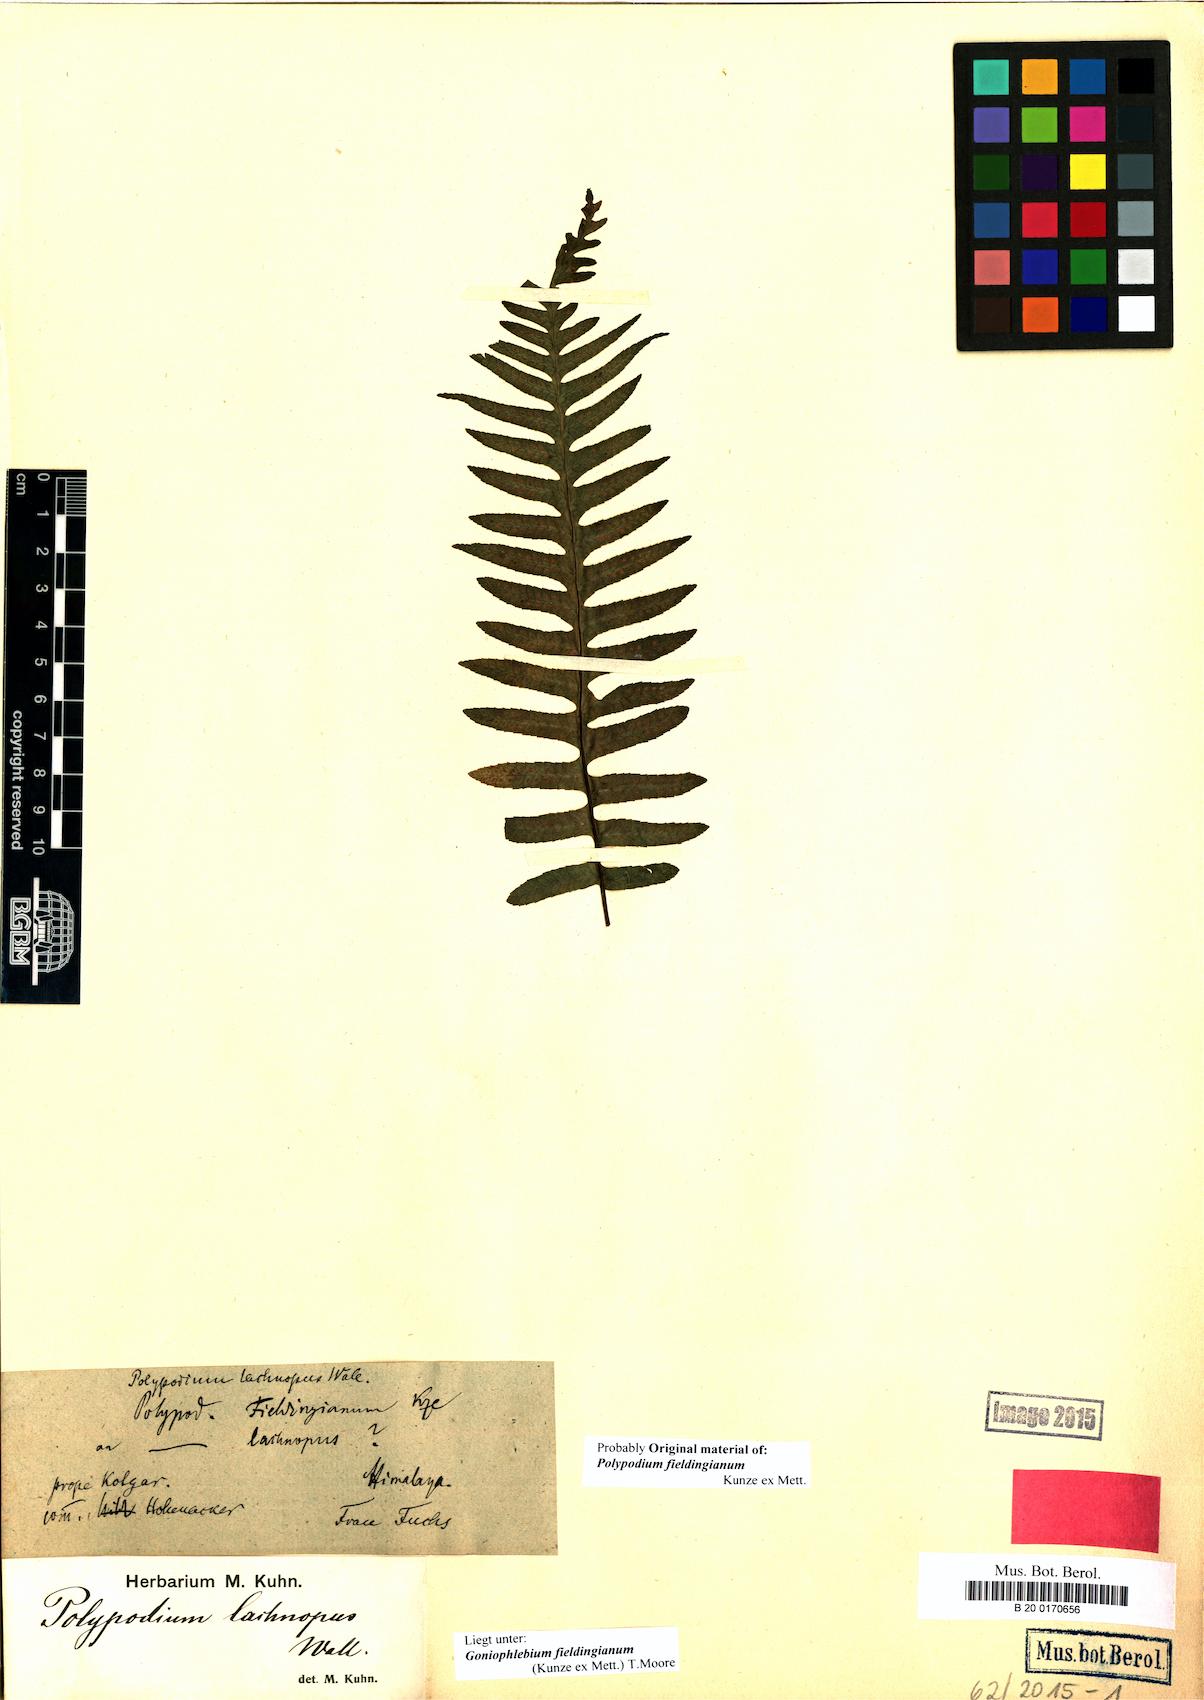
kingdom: Plantae
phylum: Tracheophyta
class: Polypodiopsida
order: Polypodiales
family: Polypodiaceae
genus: Goniophlebium
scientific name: Goniophlebium fieldingianum
